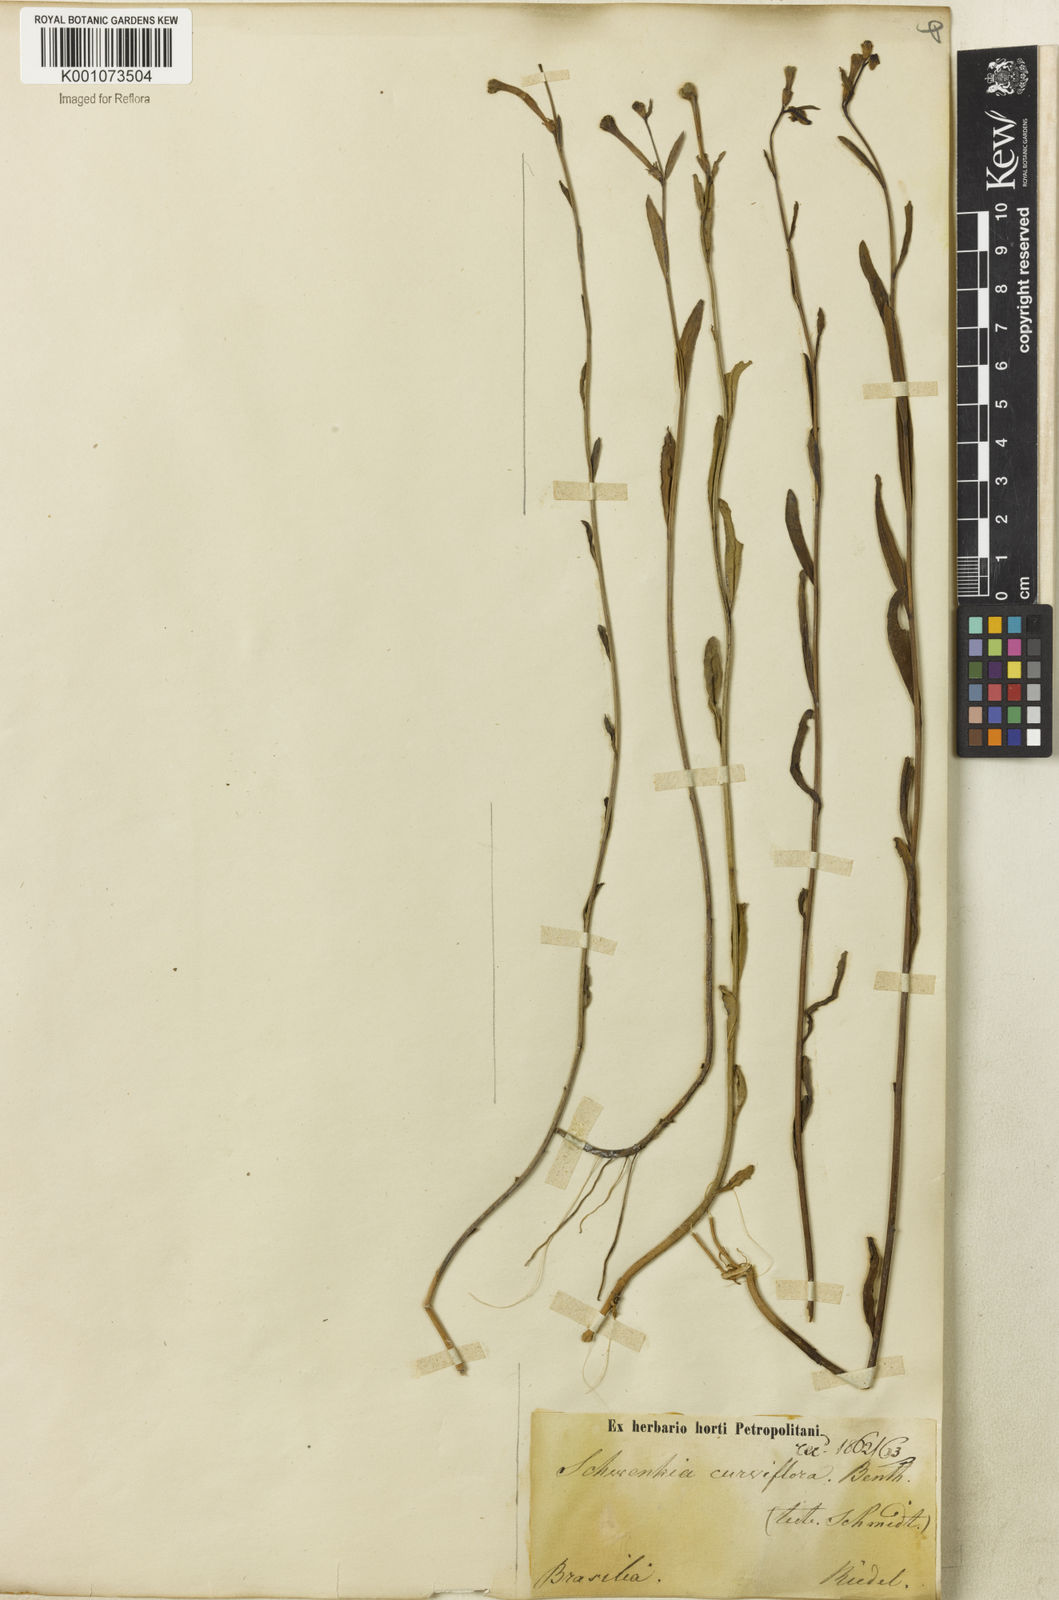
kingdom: Plantae
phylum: Tracheophyta
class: Magnoliopsida
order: Solanales
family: Solanaceae
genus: Schwenckia
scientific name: Schwenckia
